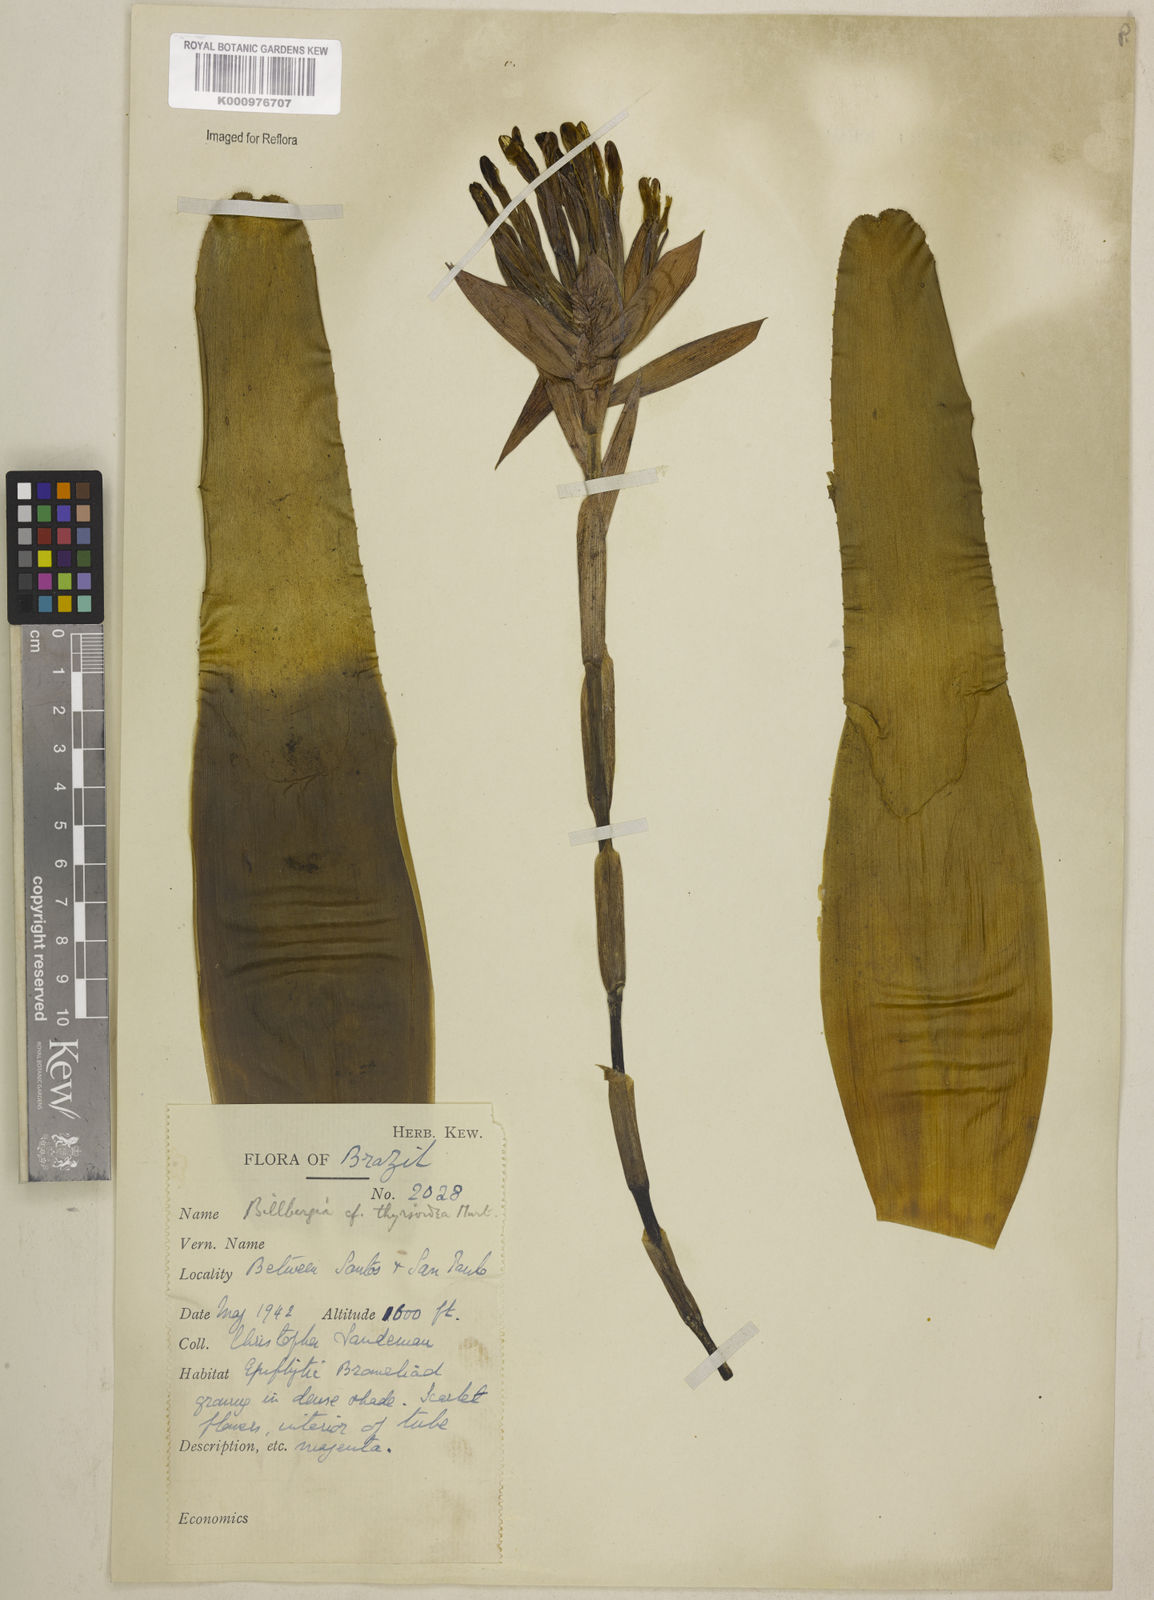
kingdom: Plantae
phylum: Tracheophyta
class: Liliopsida
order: Poales
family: Bromeliaceae
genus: Billbergia
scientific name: Billbergia pyramidalis
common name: Foolproofplant
